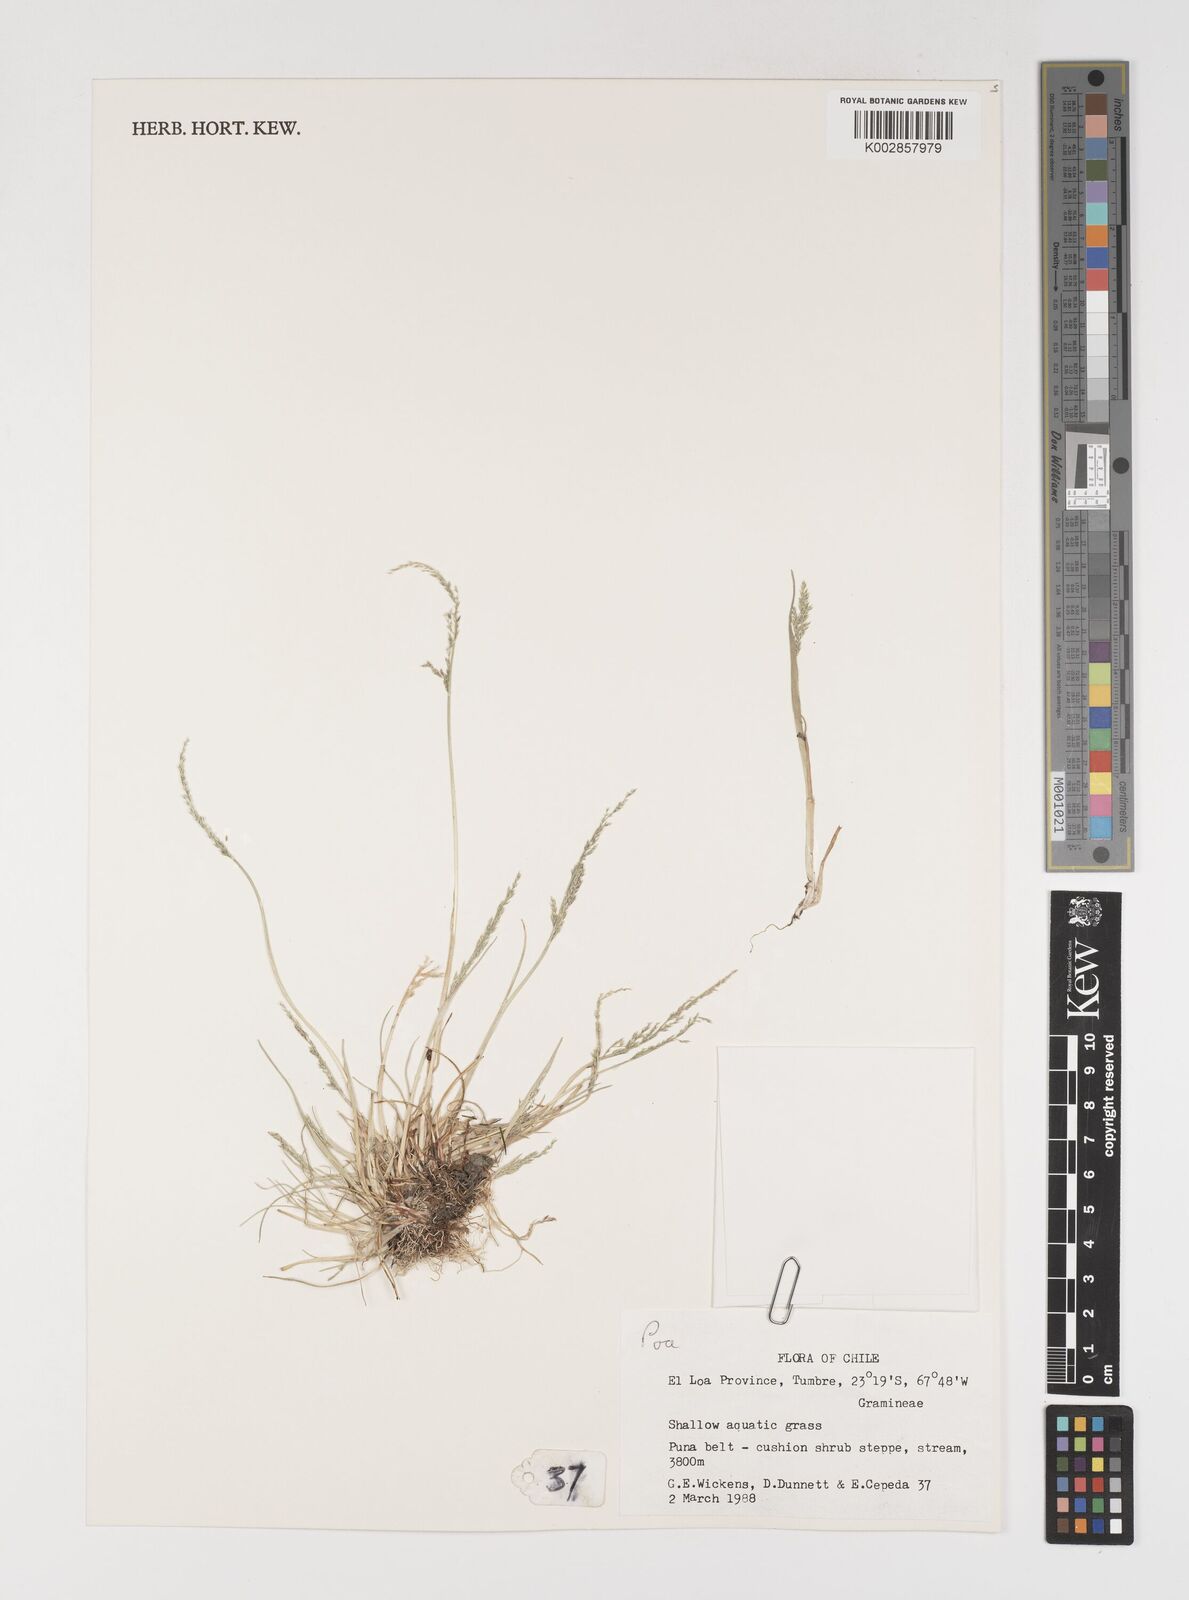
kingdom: Plantae
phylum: Tracheophyta
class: Liliopsida
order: Poales
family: Poaceae
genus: Puccinellia
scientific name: Puccinellia frigida
